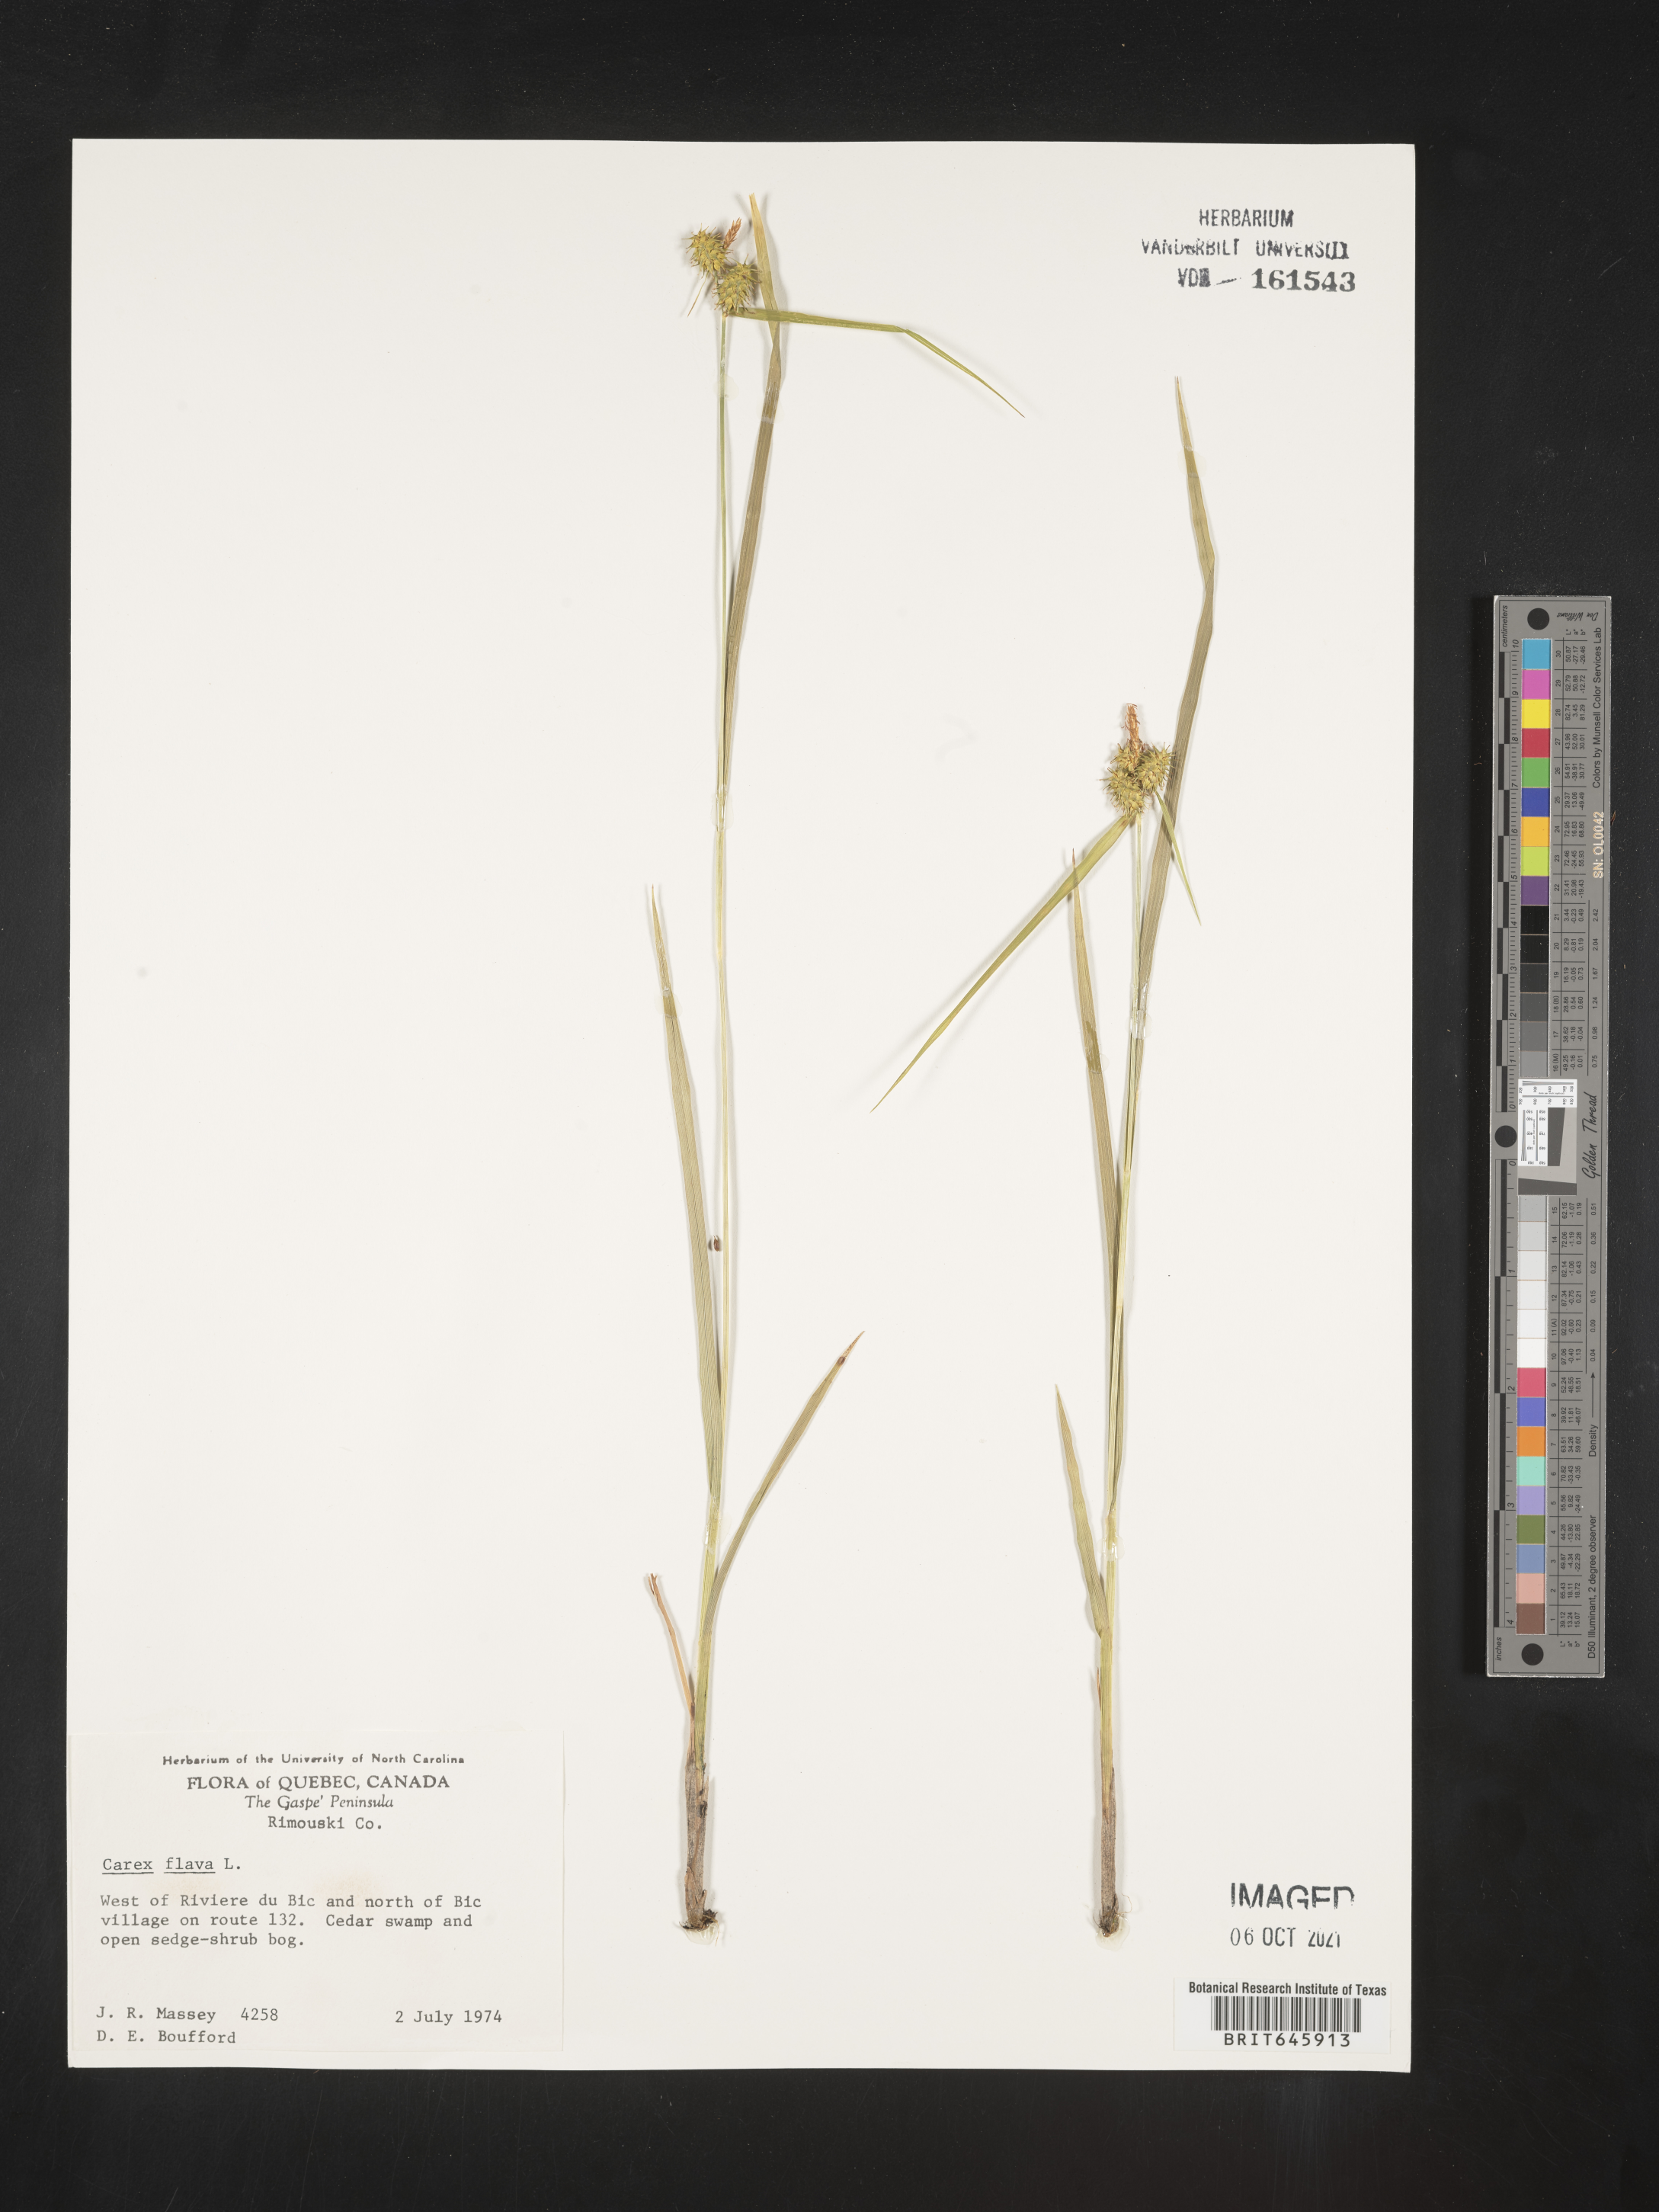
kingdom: Plantae
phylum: Tracheophyta
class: Liliopsida
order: Poales
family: Cyperaceae
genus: Carex
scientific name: Carex flava
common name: Large yellow-sedge
